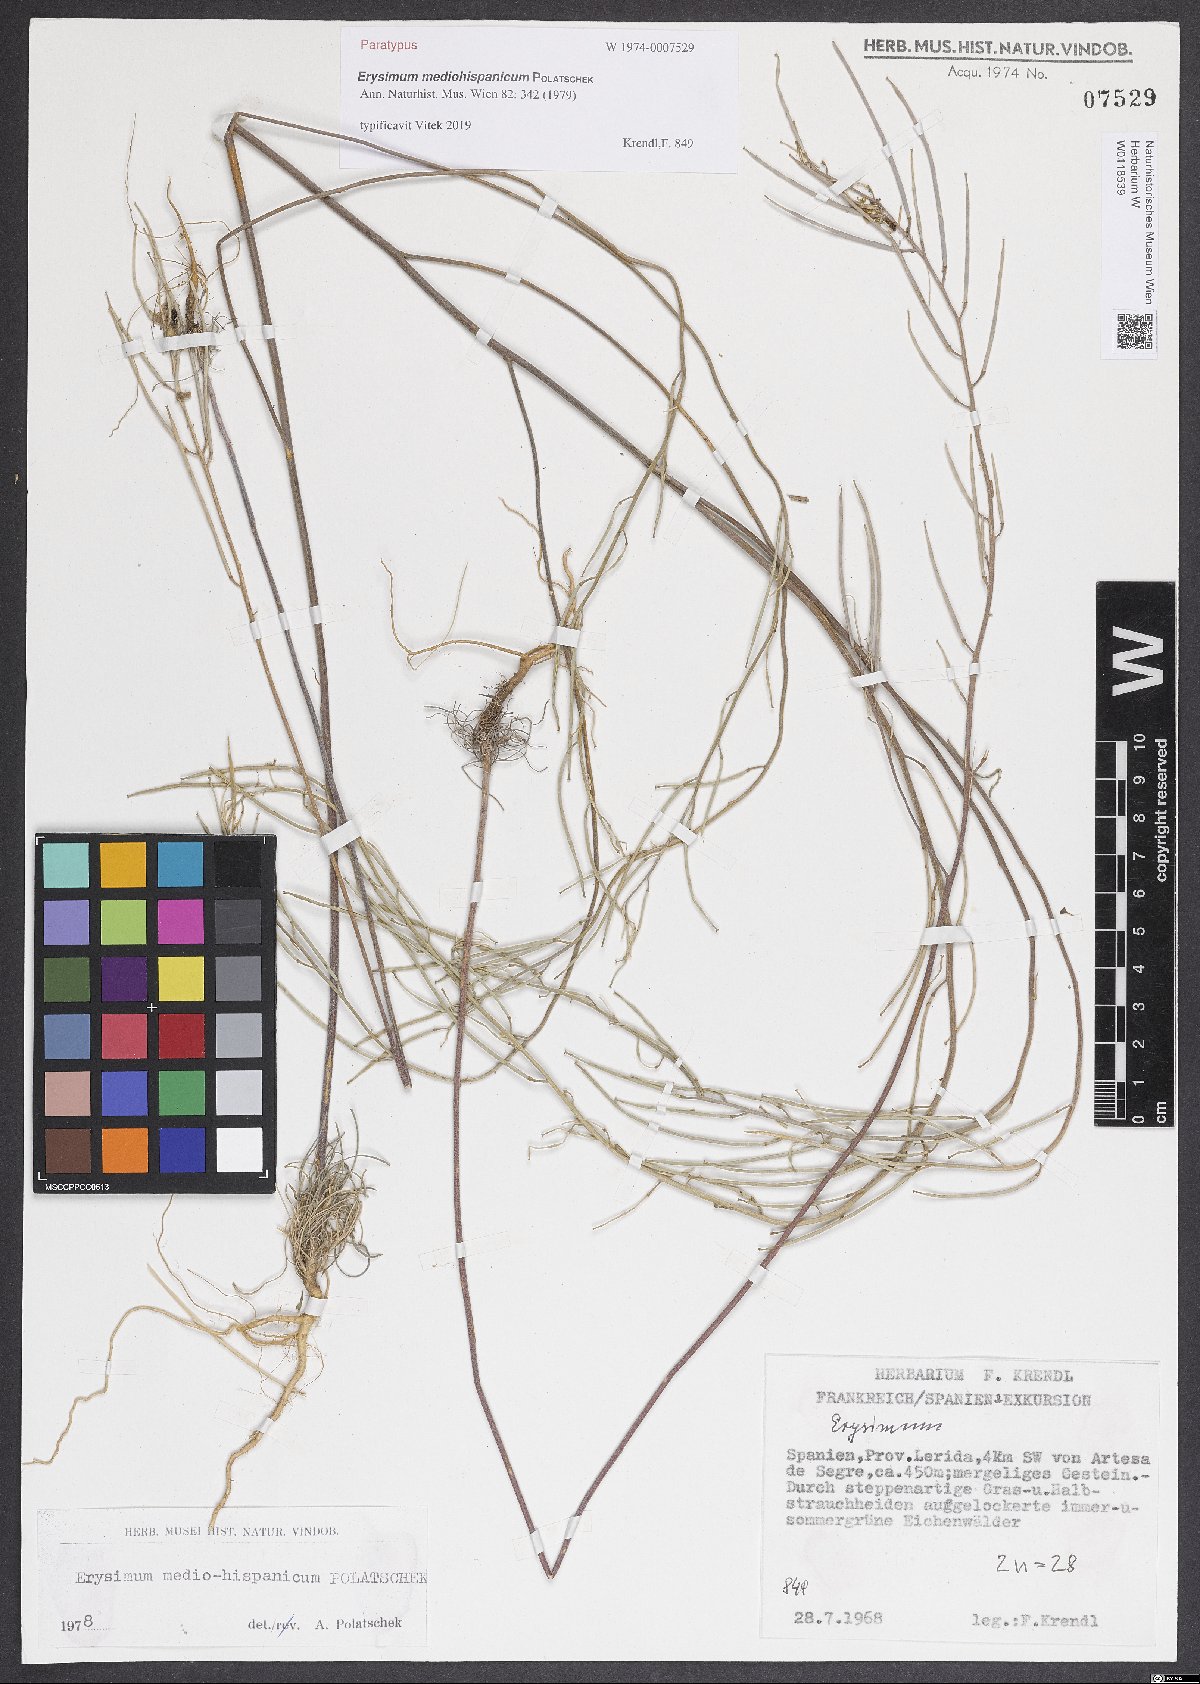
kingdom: Plantae
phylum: Tracheophyta
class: Magnoliopsida
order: Brassicales
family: Brassicaceae
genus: Erysimum
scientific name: Erysimum nevadense
